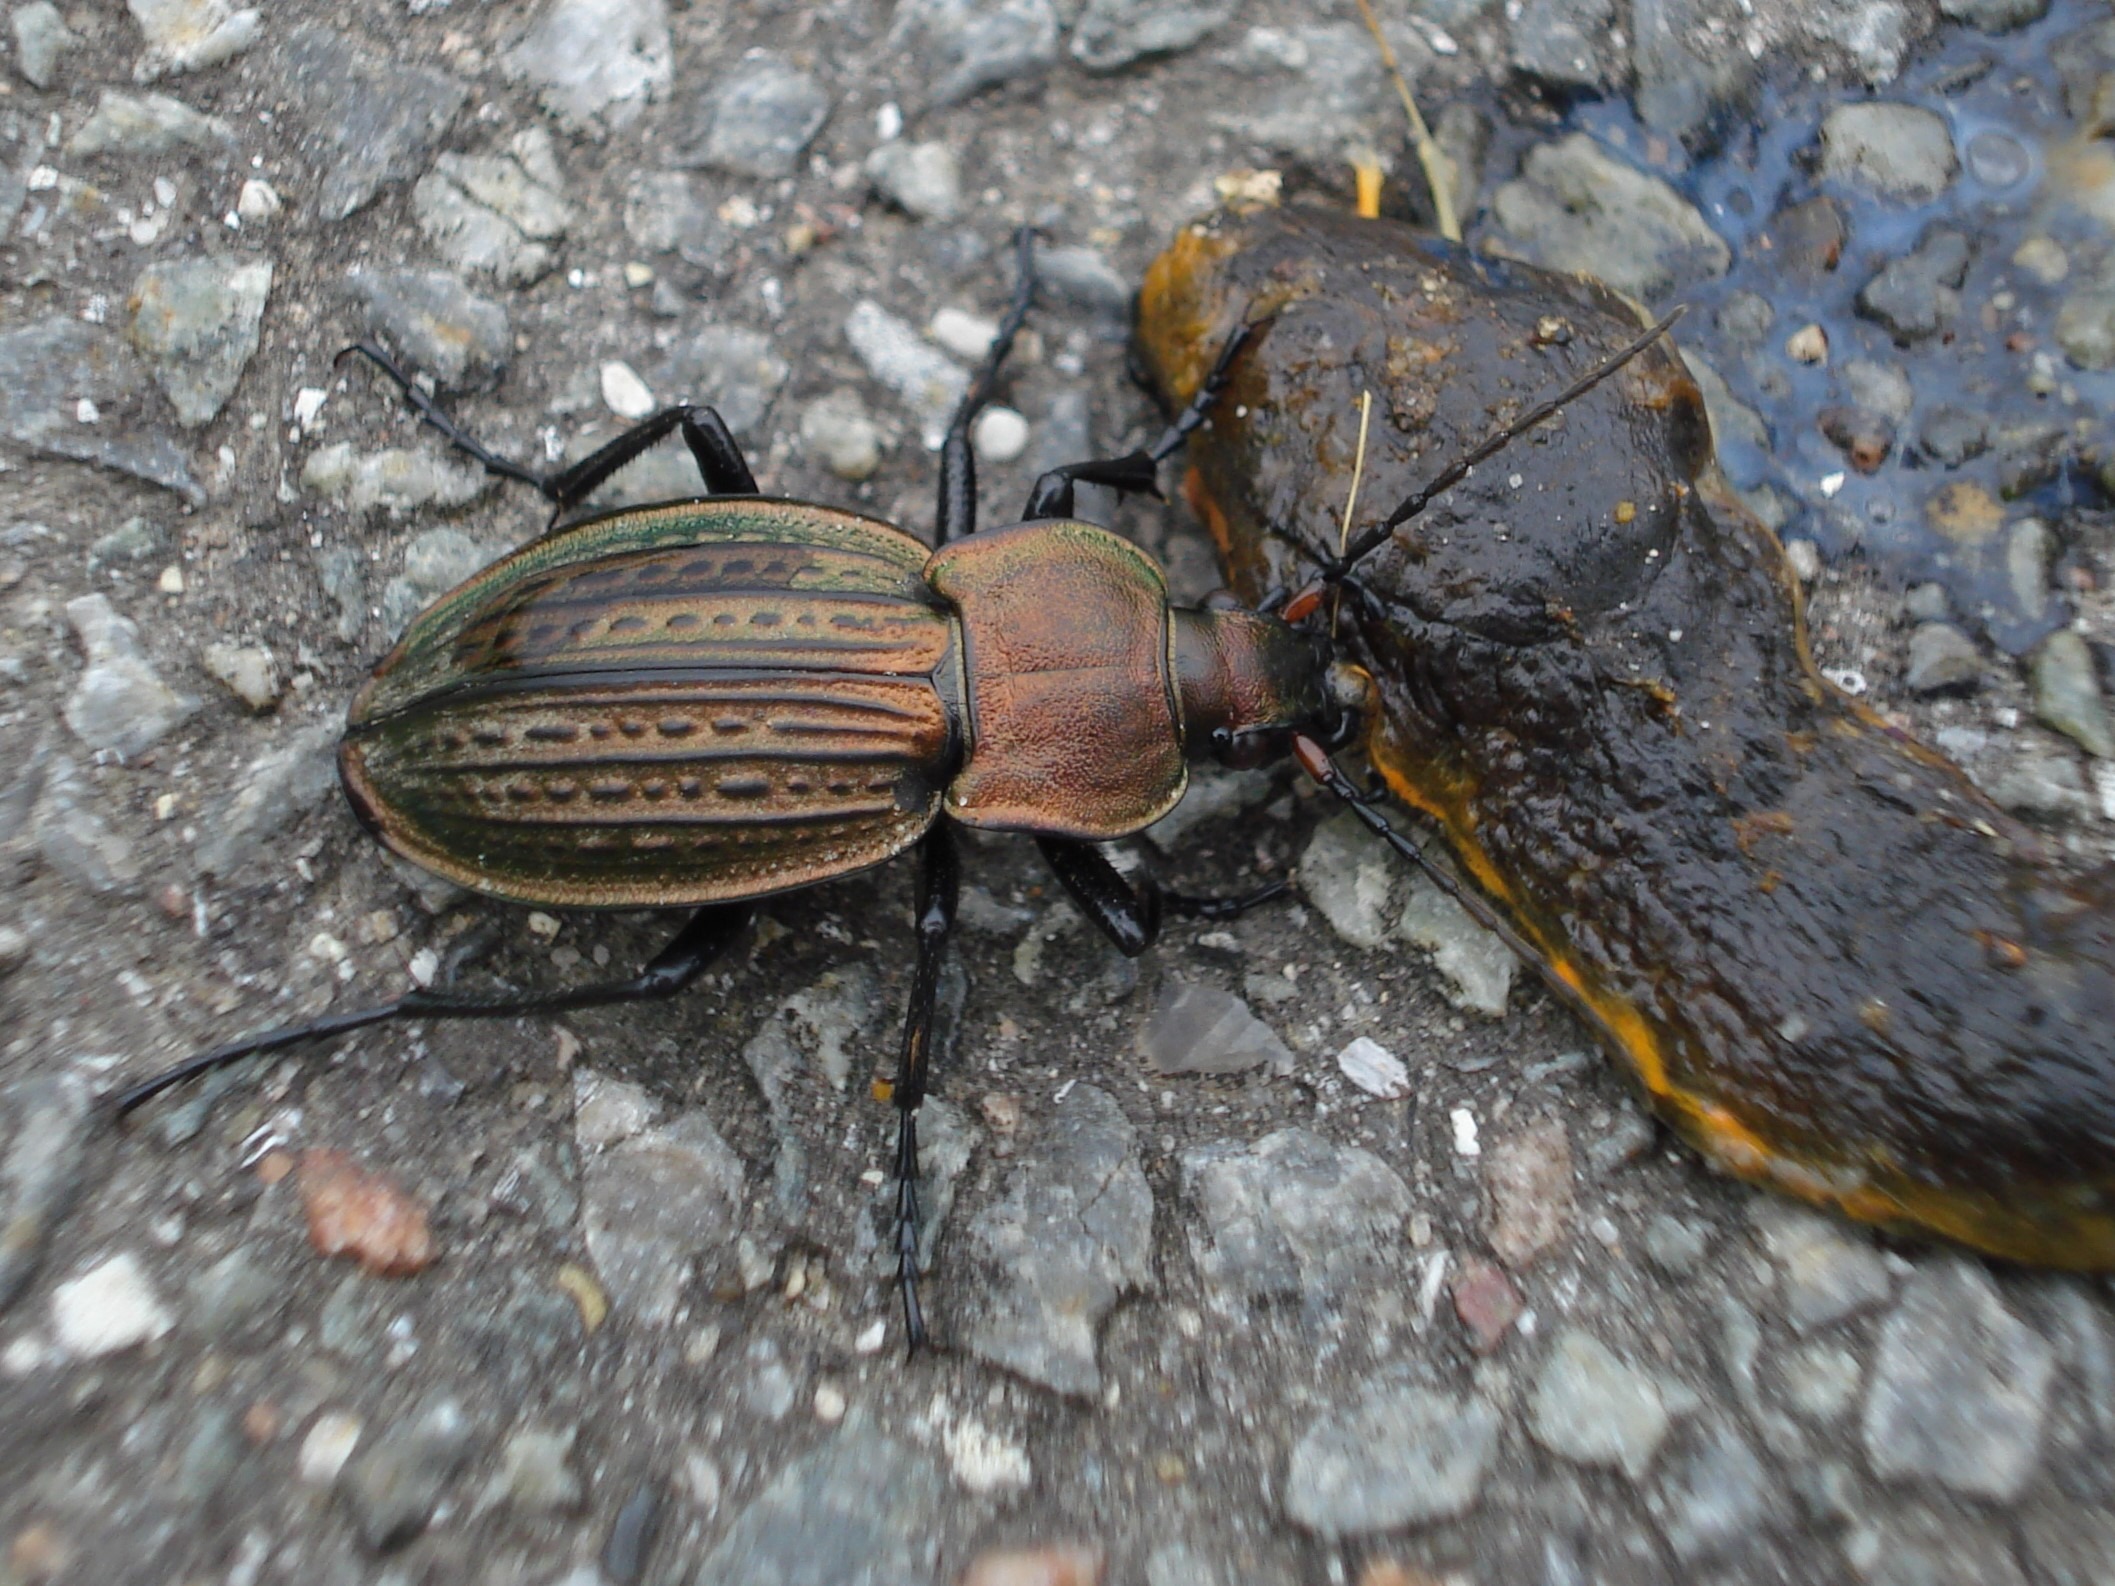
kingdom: Animalia
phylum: Arthropoda
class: Insecta
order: Coleoptera
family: Carabidae
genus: Carabus
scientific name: Carabus cancellatus
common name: Overdrevsløber
